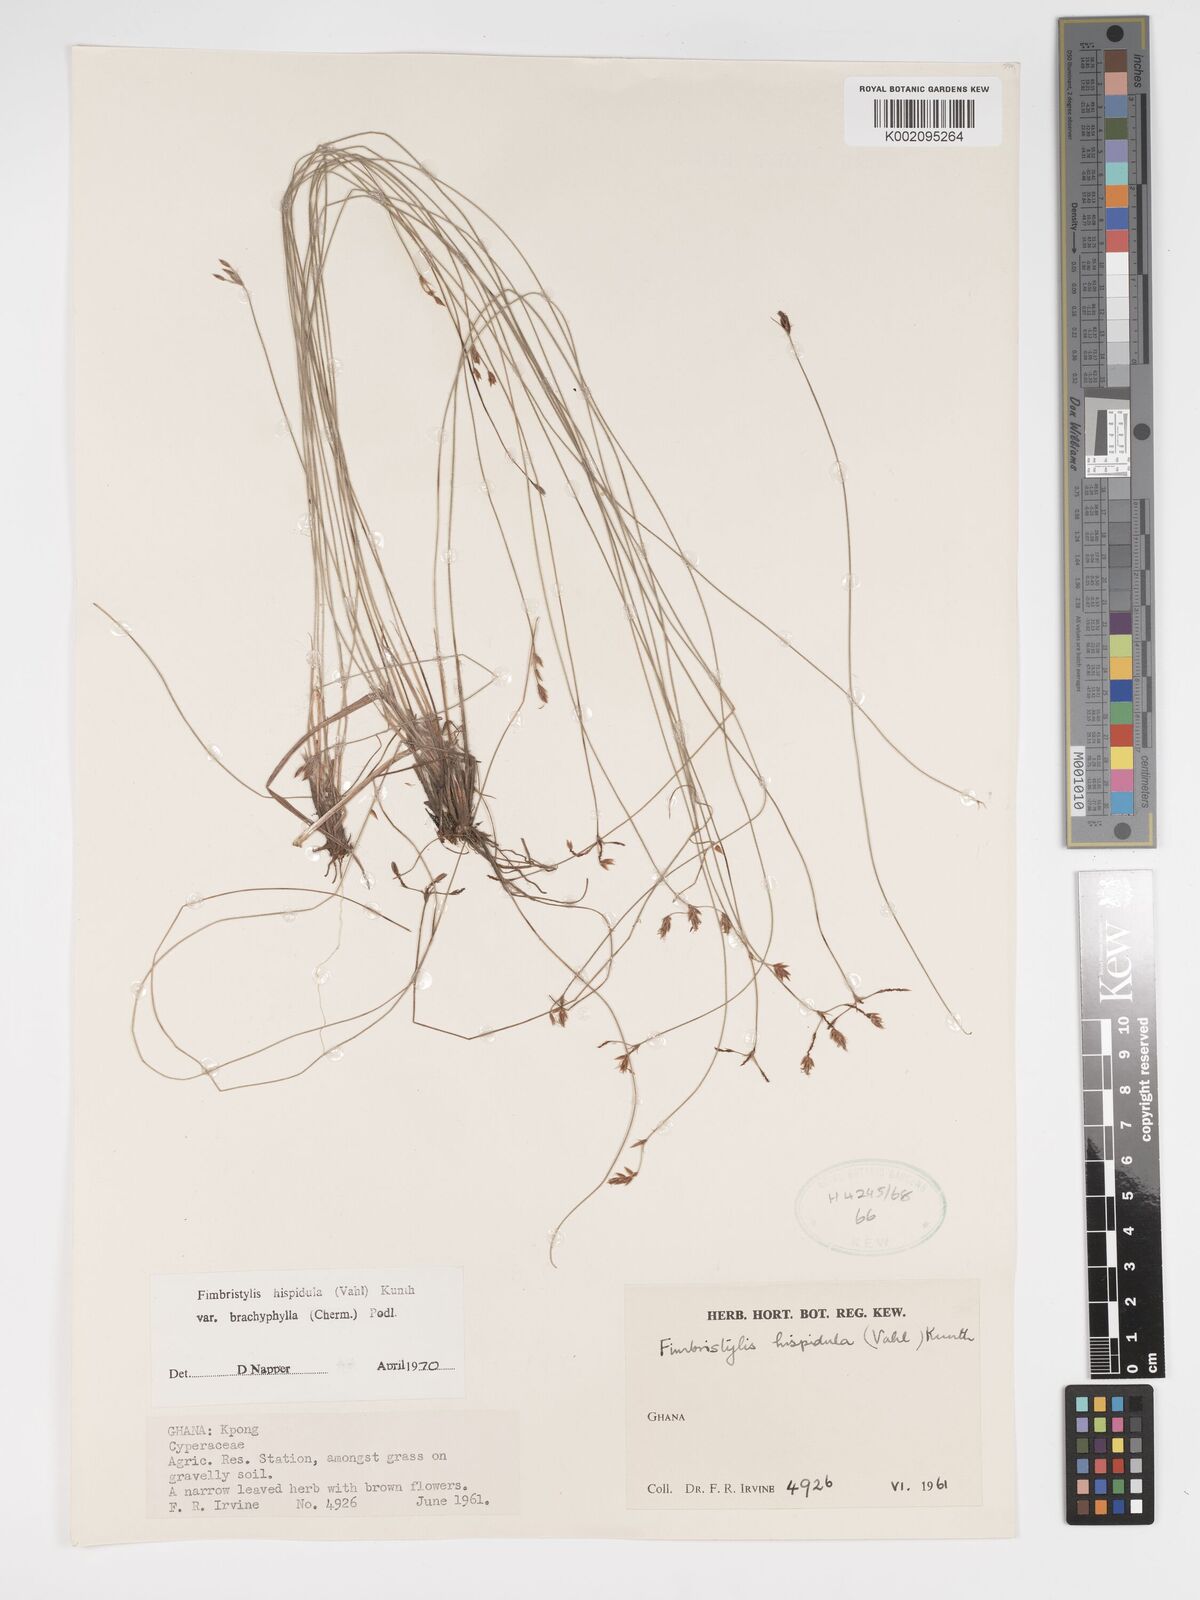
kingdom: Plantae
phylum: Tracheophyta
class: Liliopsida
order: Poales
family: Cyperaceae
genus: Bulbostylis
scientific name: Bulbostylis hispidula
